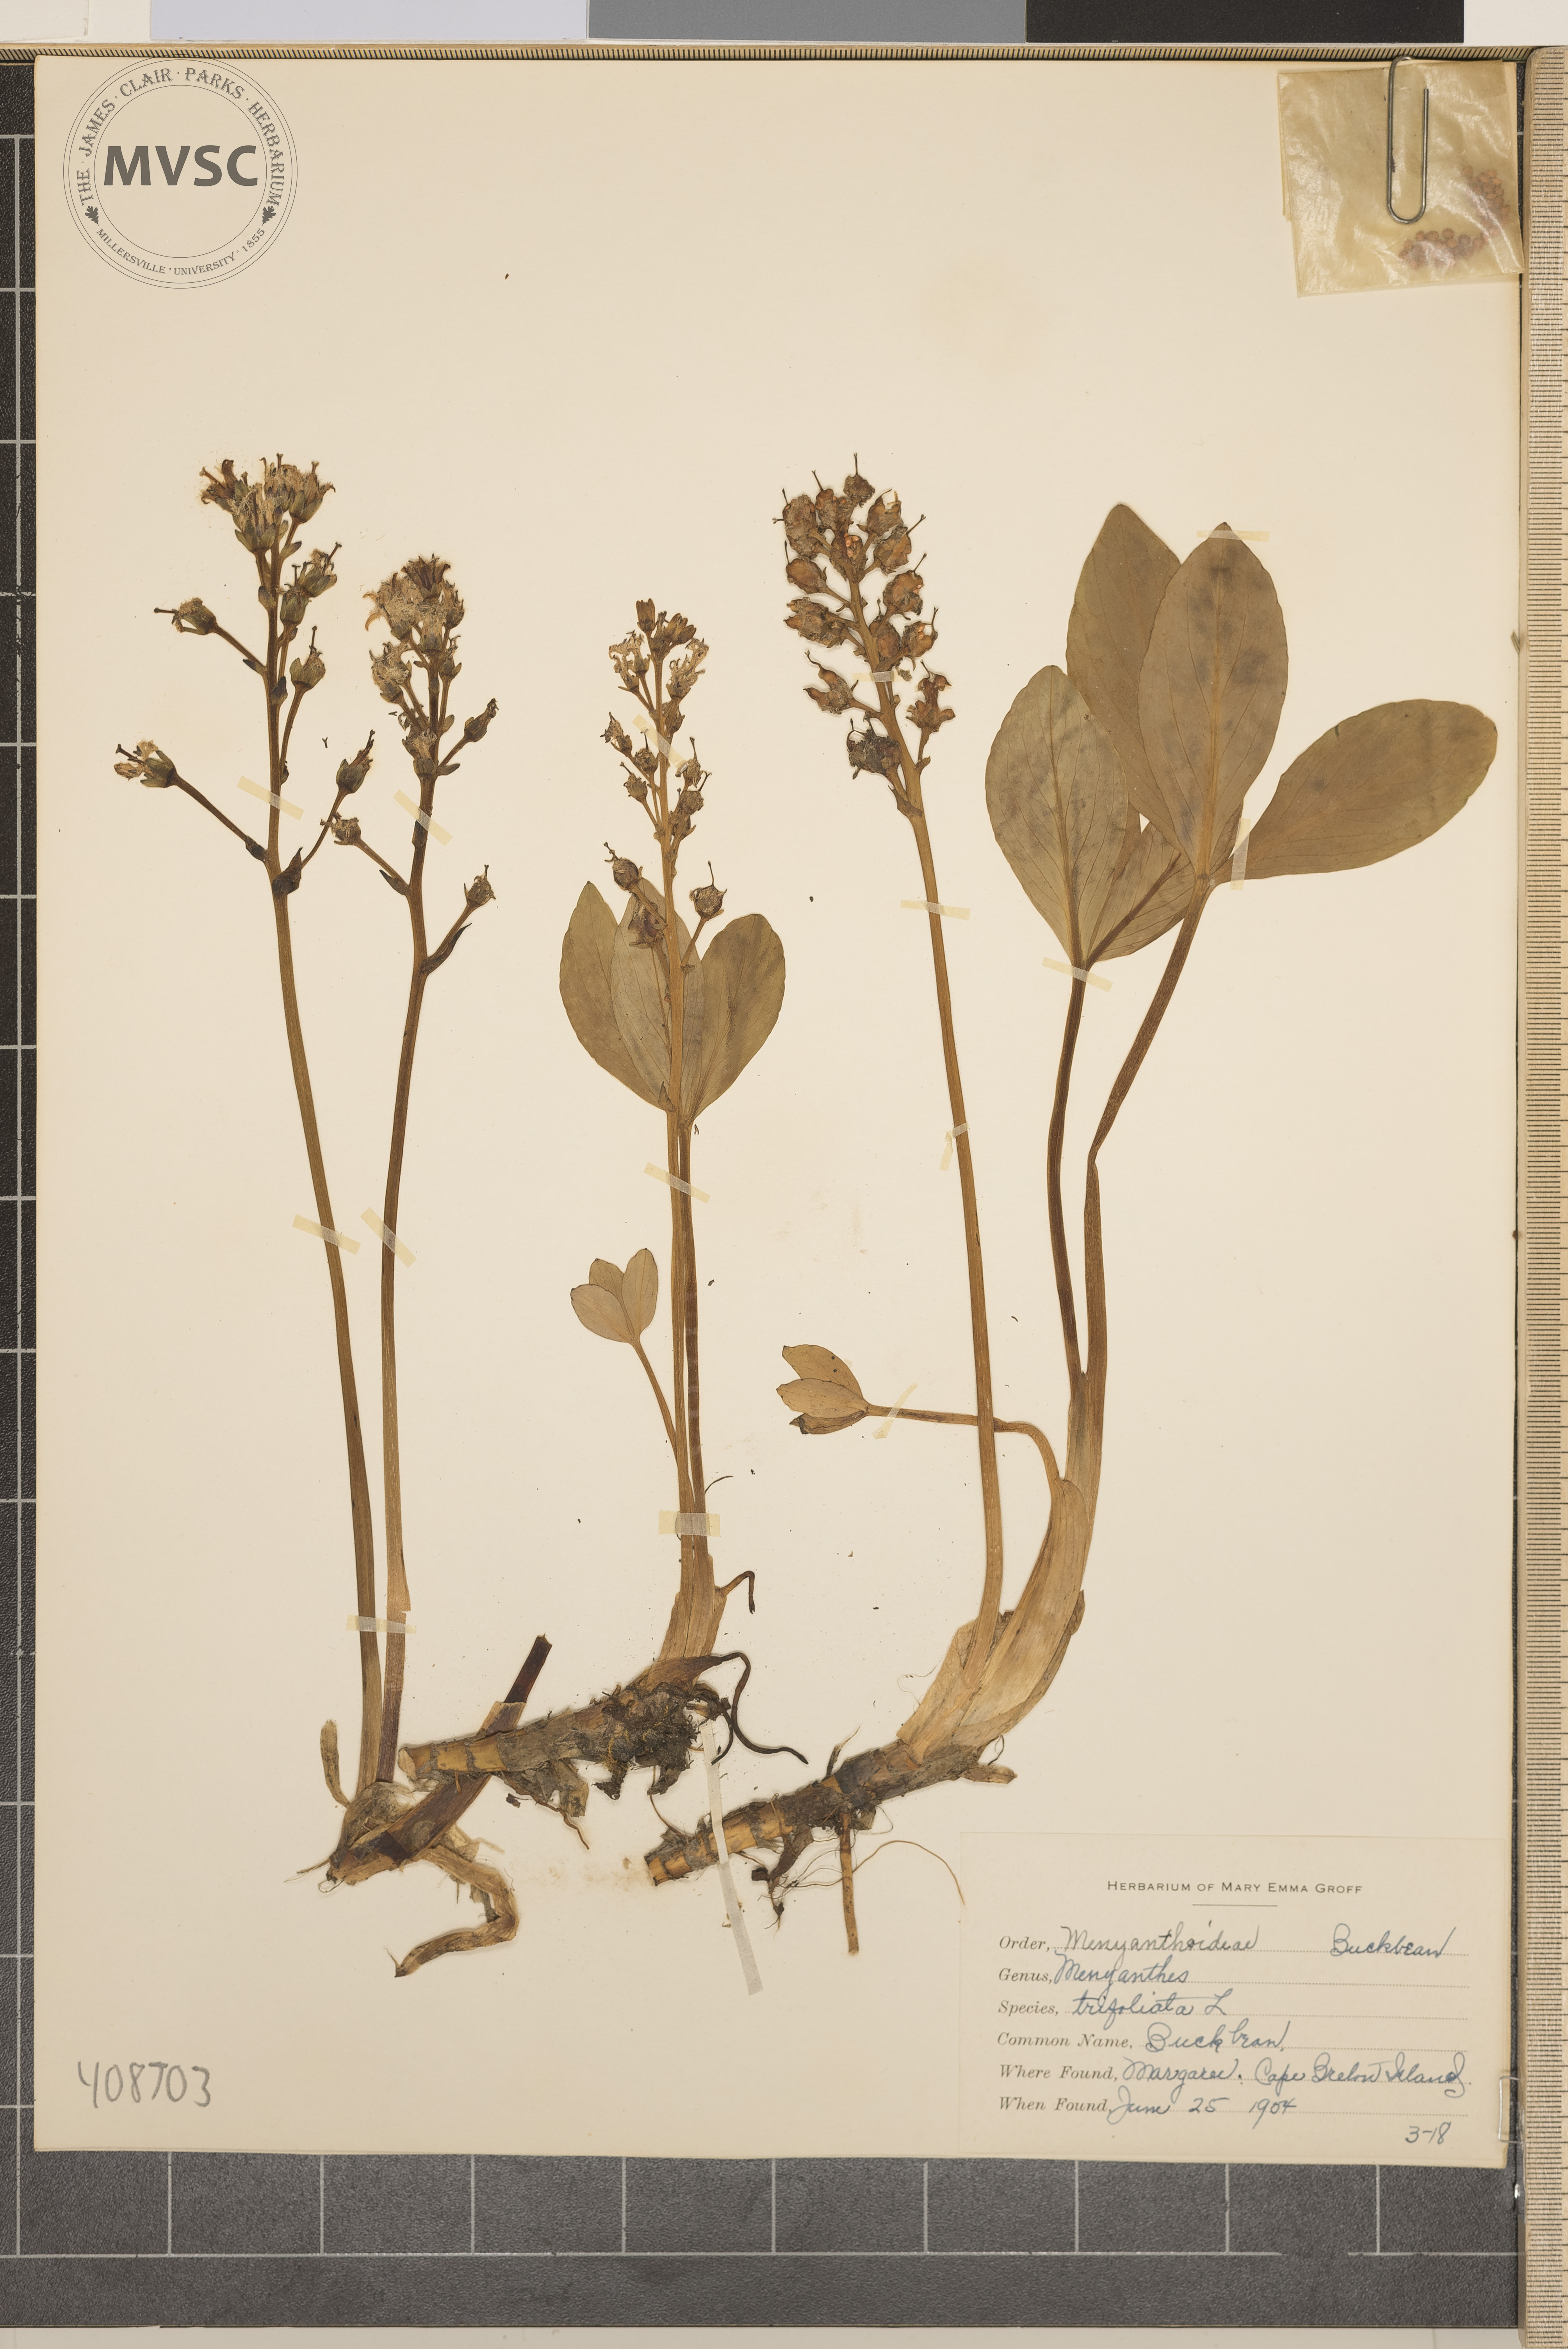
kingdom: Plantae
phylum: Tracheophyta
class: Magnoliopsida
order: Asterales
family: Menyanthaceae
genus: Menyanthes
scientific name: Menyanthes trifoliata
